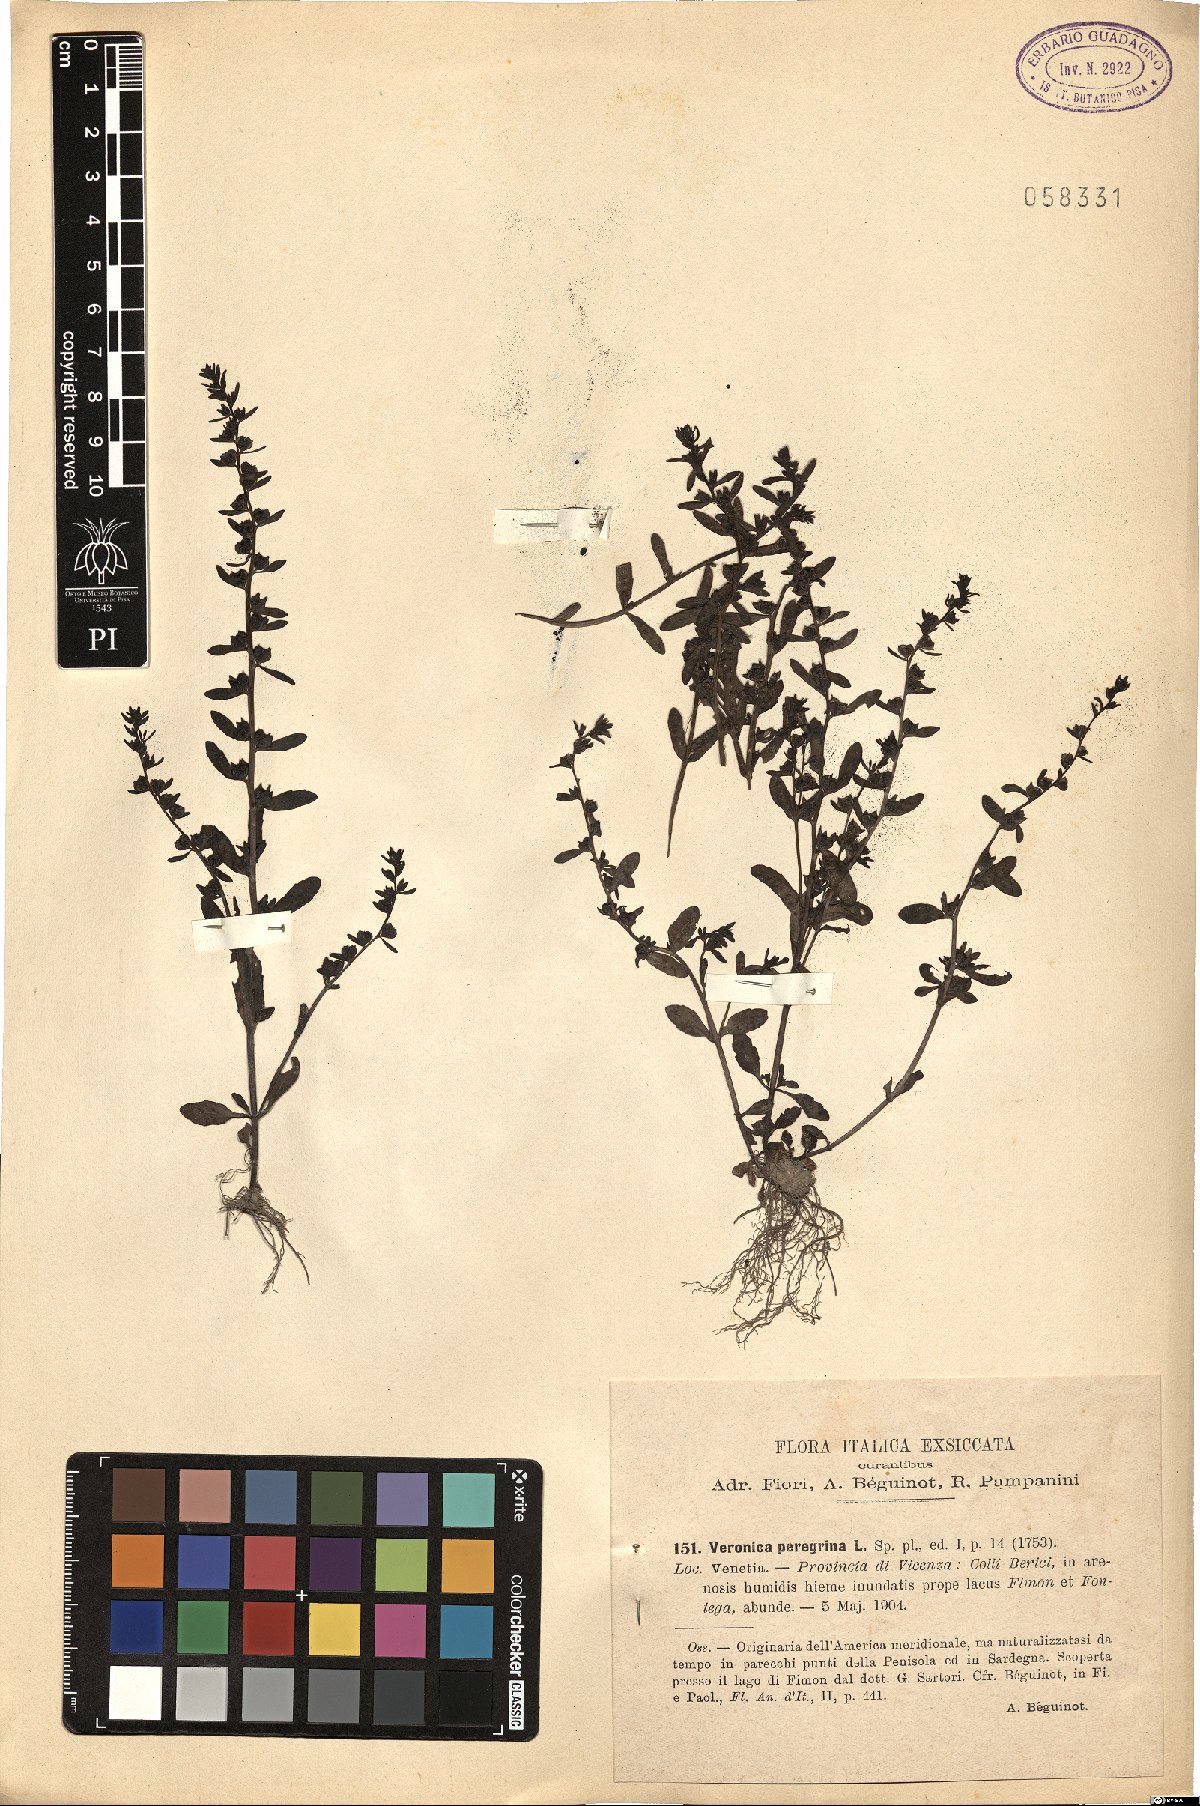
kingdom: Plantae
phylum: Tracheophyta
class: Magnoliopsida
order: Lamiales
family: Plantaginaceae
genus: Veronica
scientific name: Veronica peregrina
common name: Neckweed
